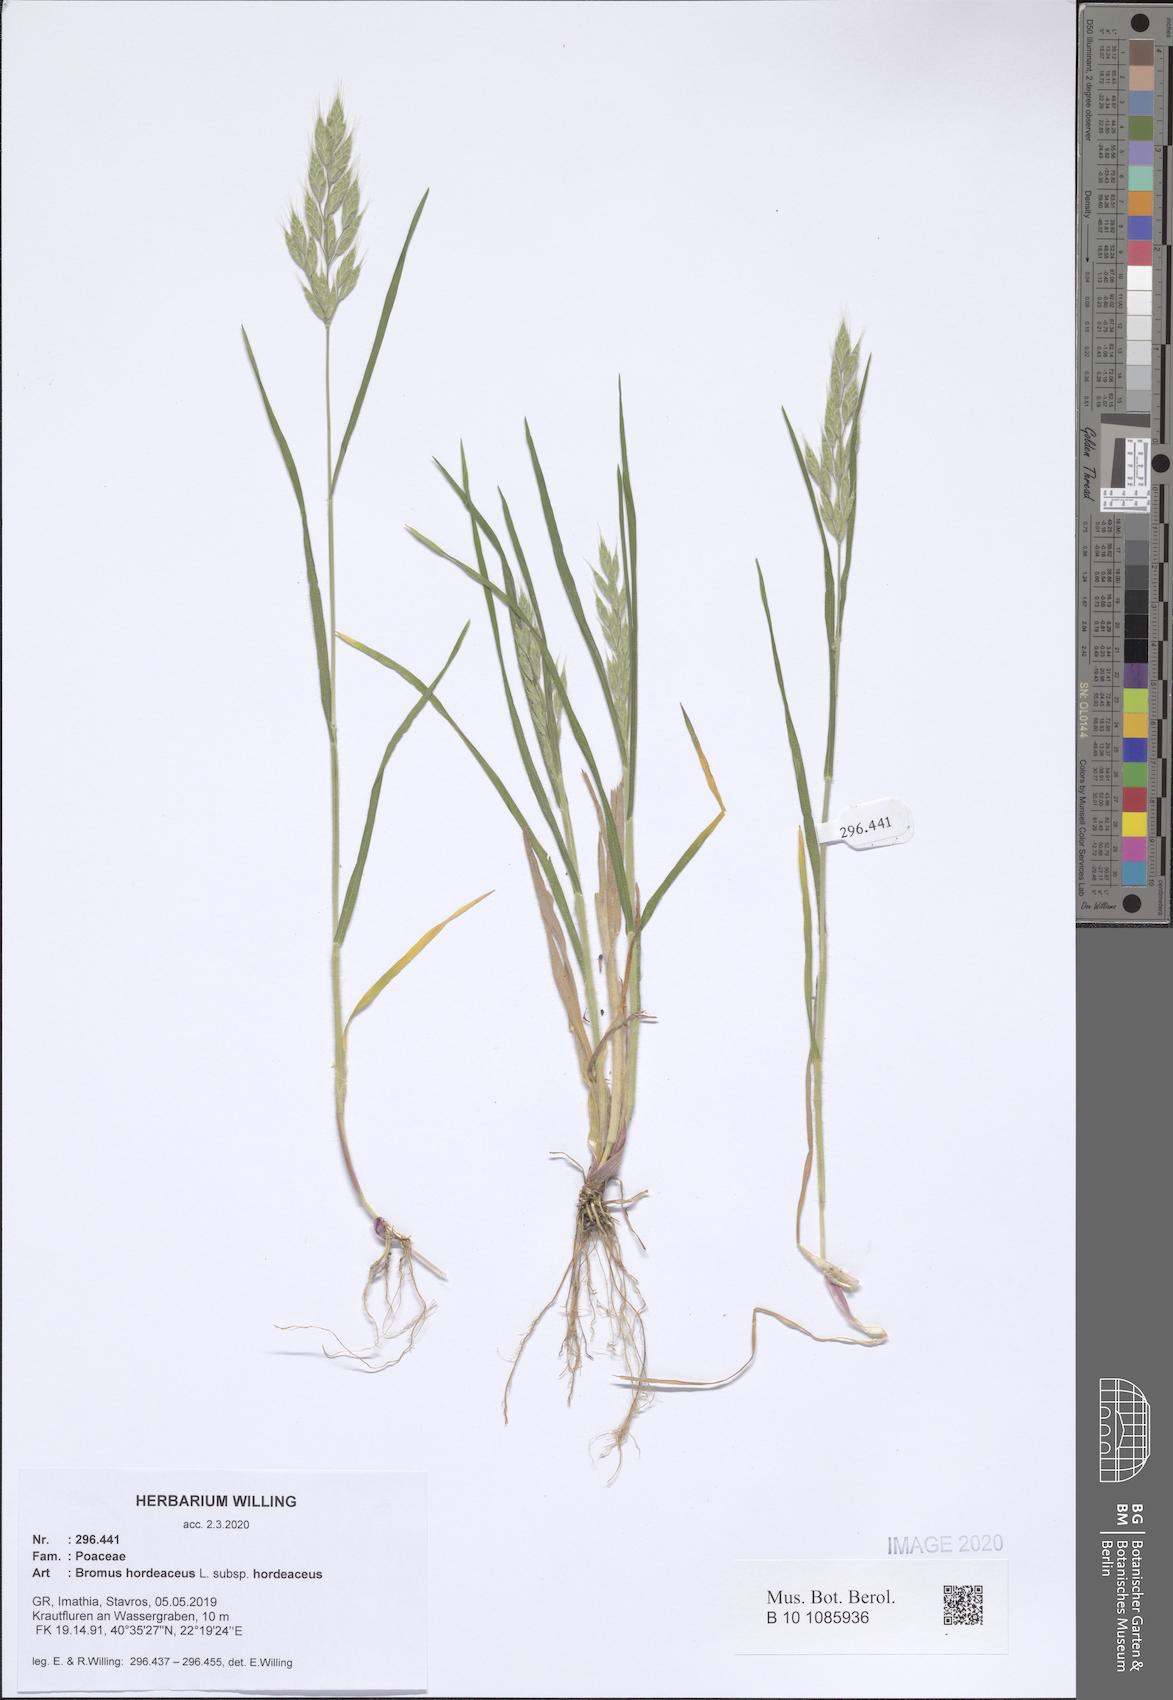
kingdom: Plantae
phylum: Tracheophyta
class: Liliopsida
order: Poales
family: Poaceae
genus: Bromus
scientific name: Bromus hordeaceus
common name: Soft brome
